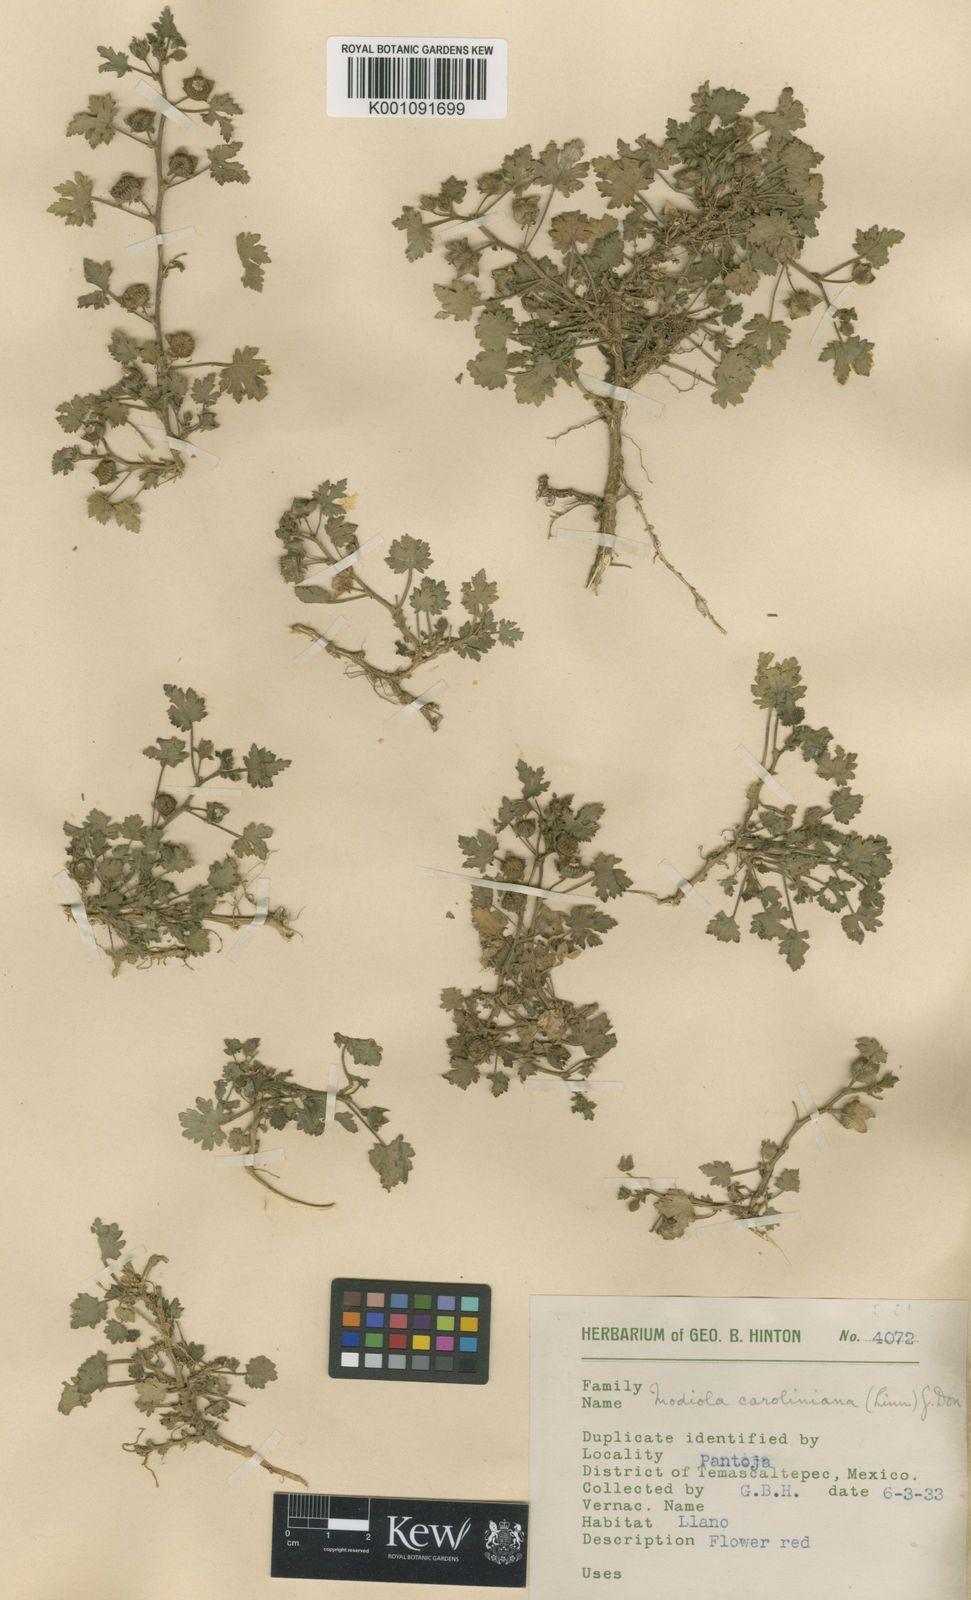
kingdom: Plantae
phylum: Tracheophyta
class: Magnoliopsida
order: Malvales
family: Malvaceae
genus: Modiola
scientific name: Modiola caroliniana
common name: Carolina bristlemallow
